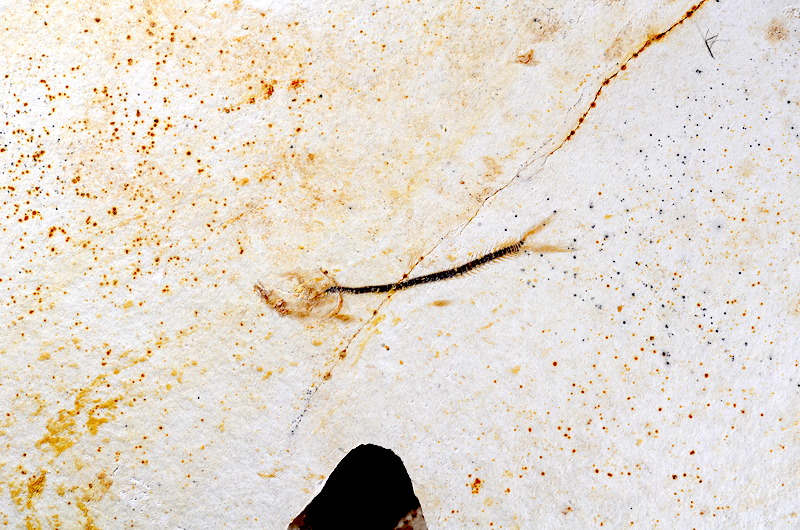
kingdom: Animalia
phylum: Chordata
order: Salmoniformes
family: Orthogonikleithridae
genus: Orthogonikleithrus
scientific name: Orthogonikleithrus hoelli
